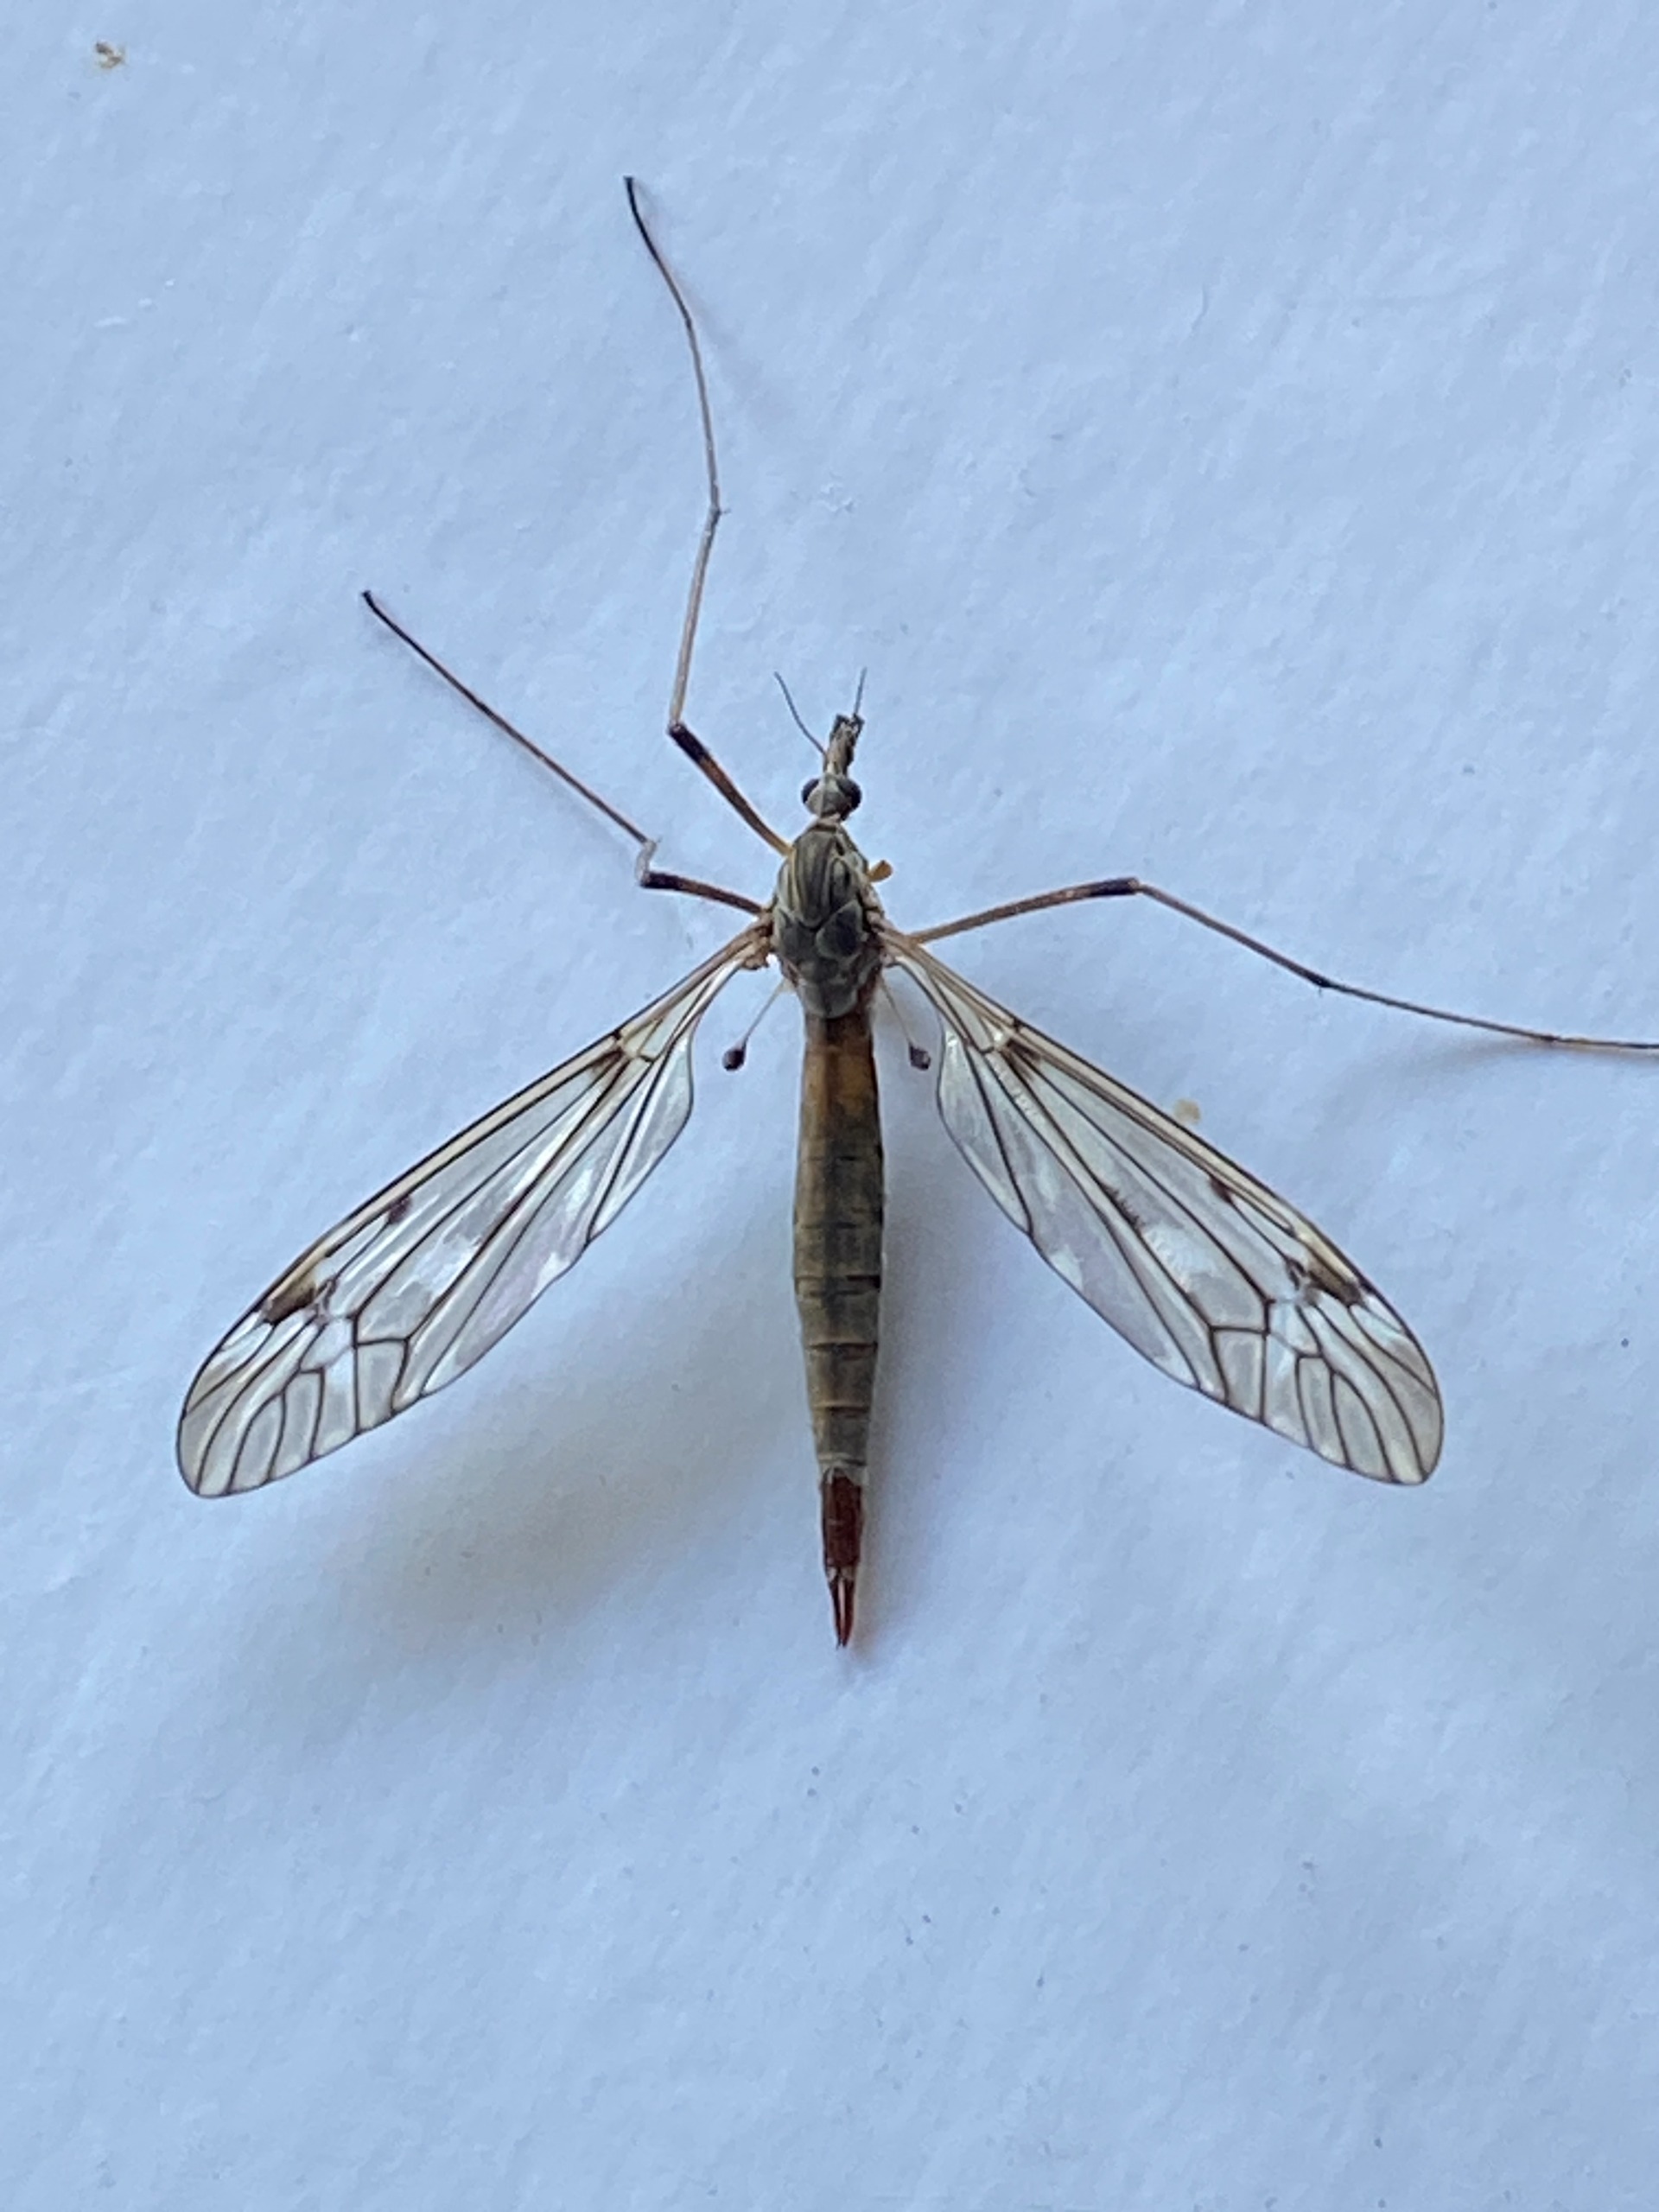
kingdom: Animalia
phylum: Arthropoda
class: Insecta
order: Diptera
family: Tipulidae
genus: Tipula
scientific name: Tipula scripta
